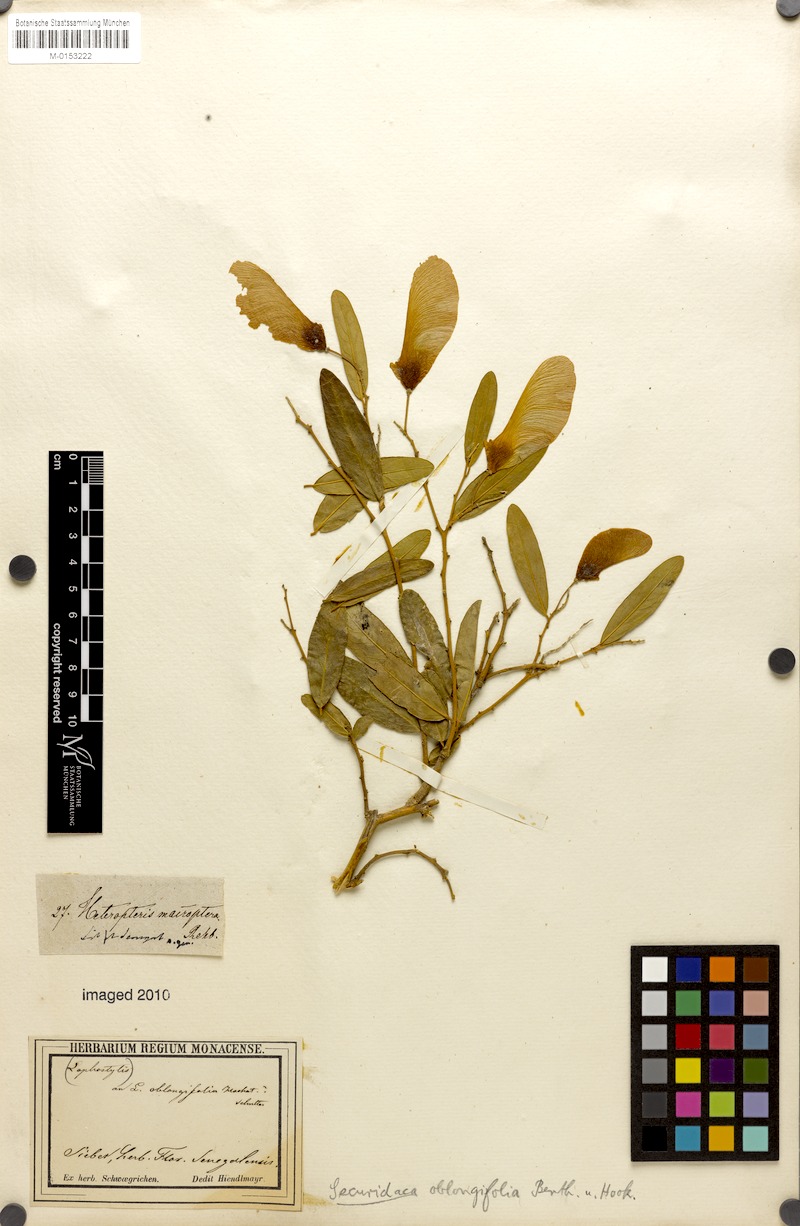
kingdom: Plantae
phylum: Tracheophyta
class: Magnoliopsida
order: Fabales
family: Polygalaceae
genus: Securidaca
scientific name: Securidaca longepedunculata
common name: Violet tree
